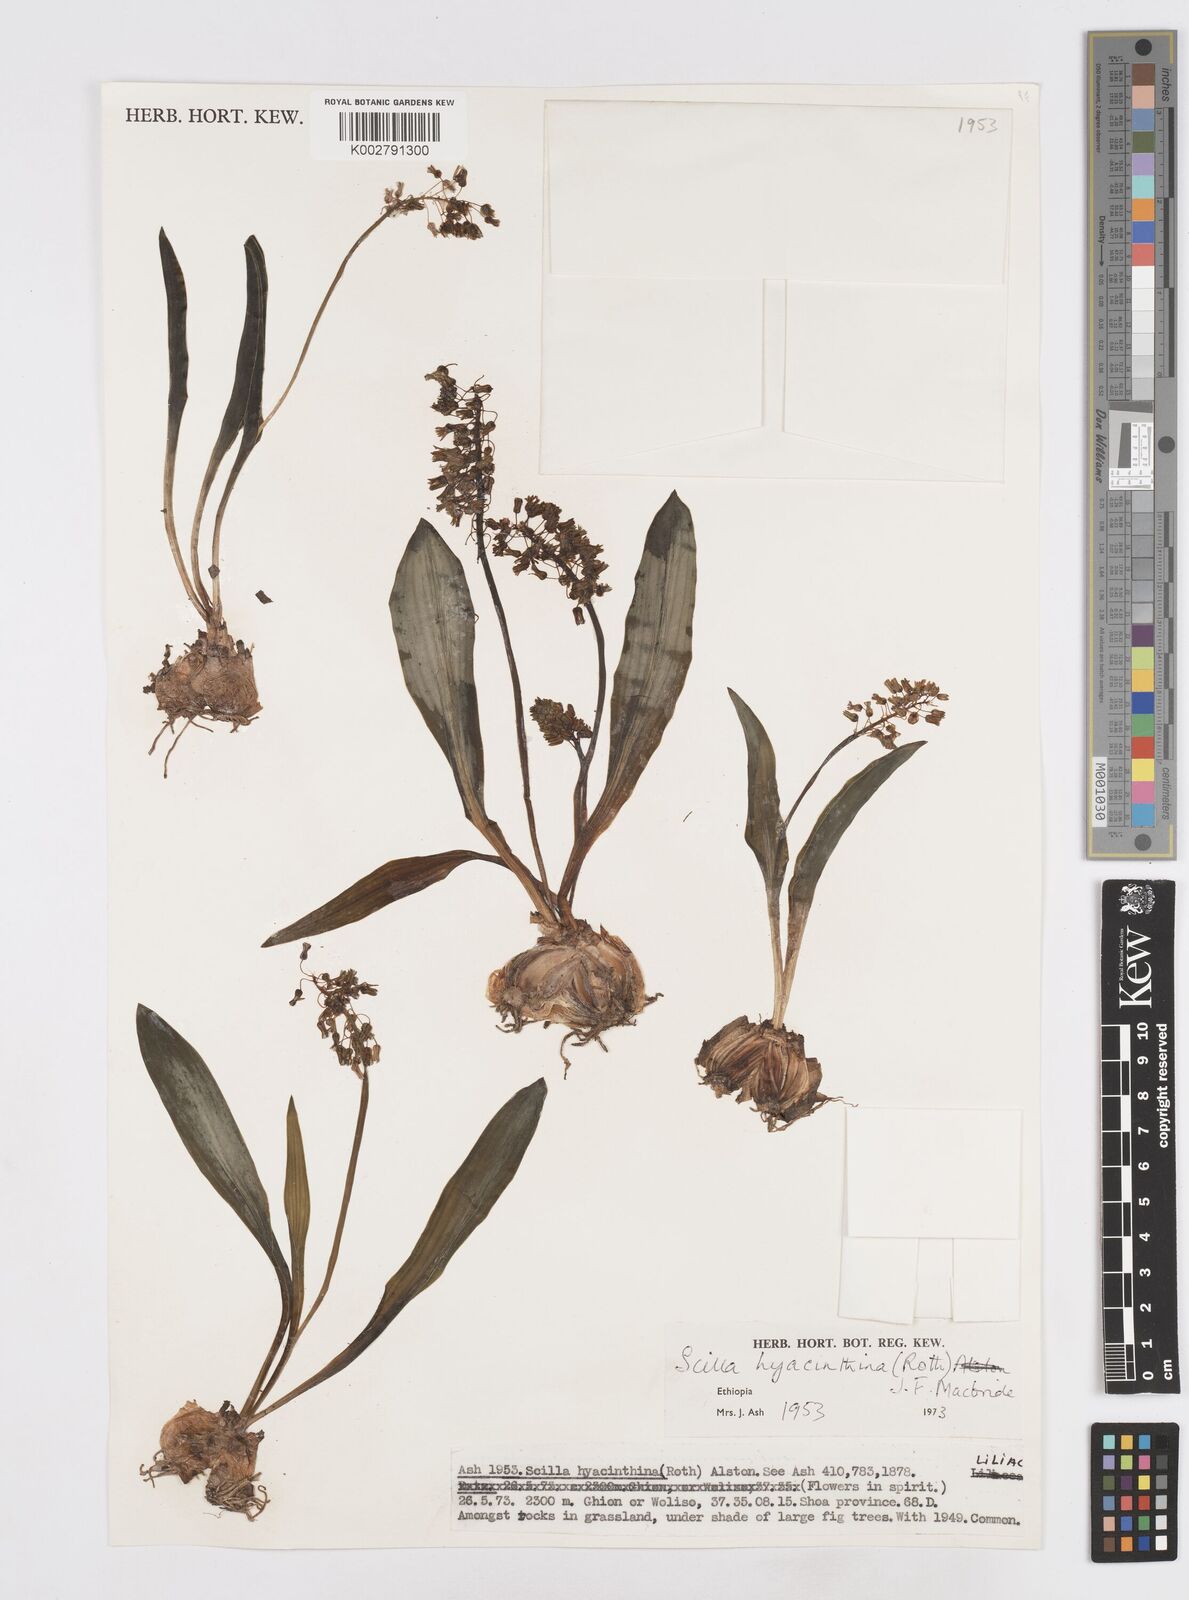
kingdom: Plantae
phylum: Tracheophyta
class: Liliopsida
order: Asparagales
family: Asparagaceae
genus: Ledebouria
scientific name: Ledebouria revoluta
